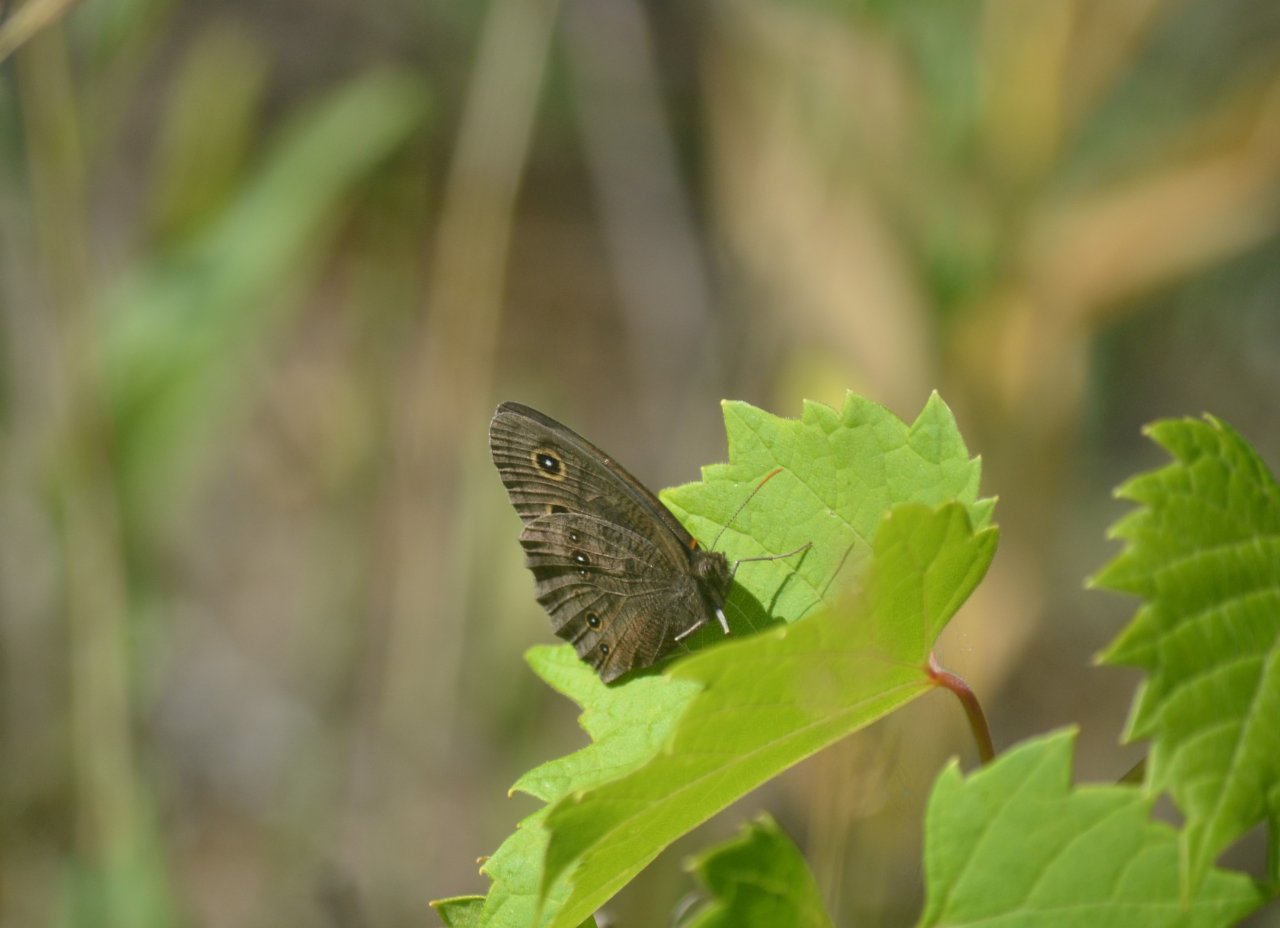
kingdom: Animalia
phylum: Arthropoda
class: Insecta
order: Lepidoptera
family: Nymphalidae
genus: Cercyonis
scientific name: Cercyonis pegala
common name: Common Wood-Nymph
